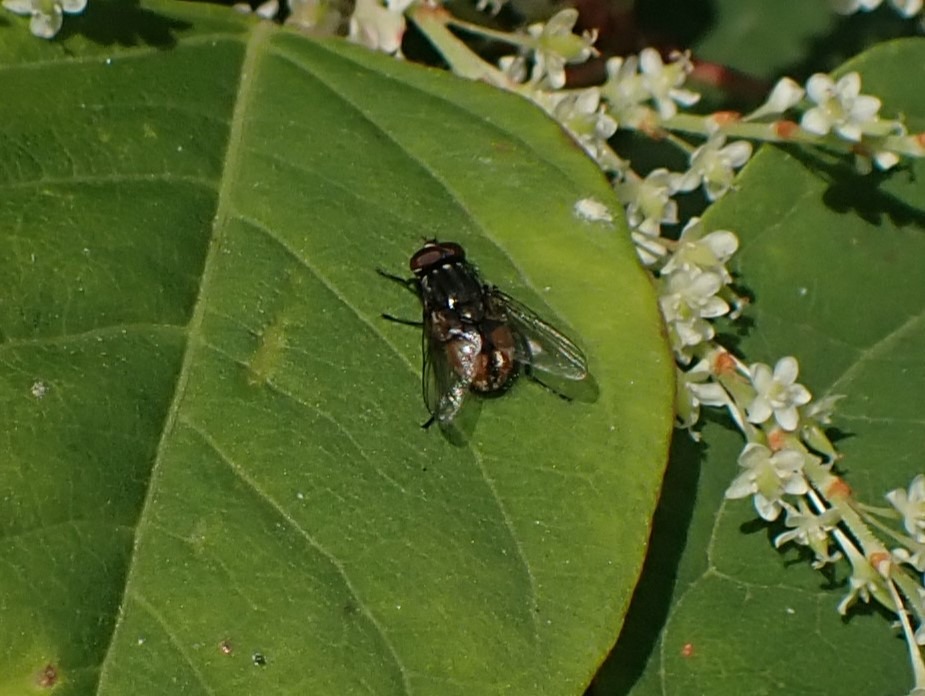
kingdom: Animalia
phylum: Arthropoda
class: Insecta
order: Diptera
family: Muscidae
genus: Musca
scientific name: Musca autumnalis
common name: Kvægflue
